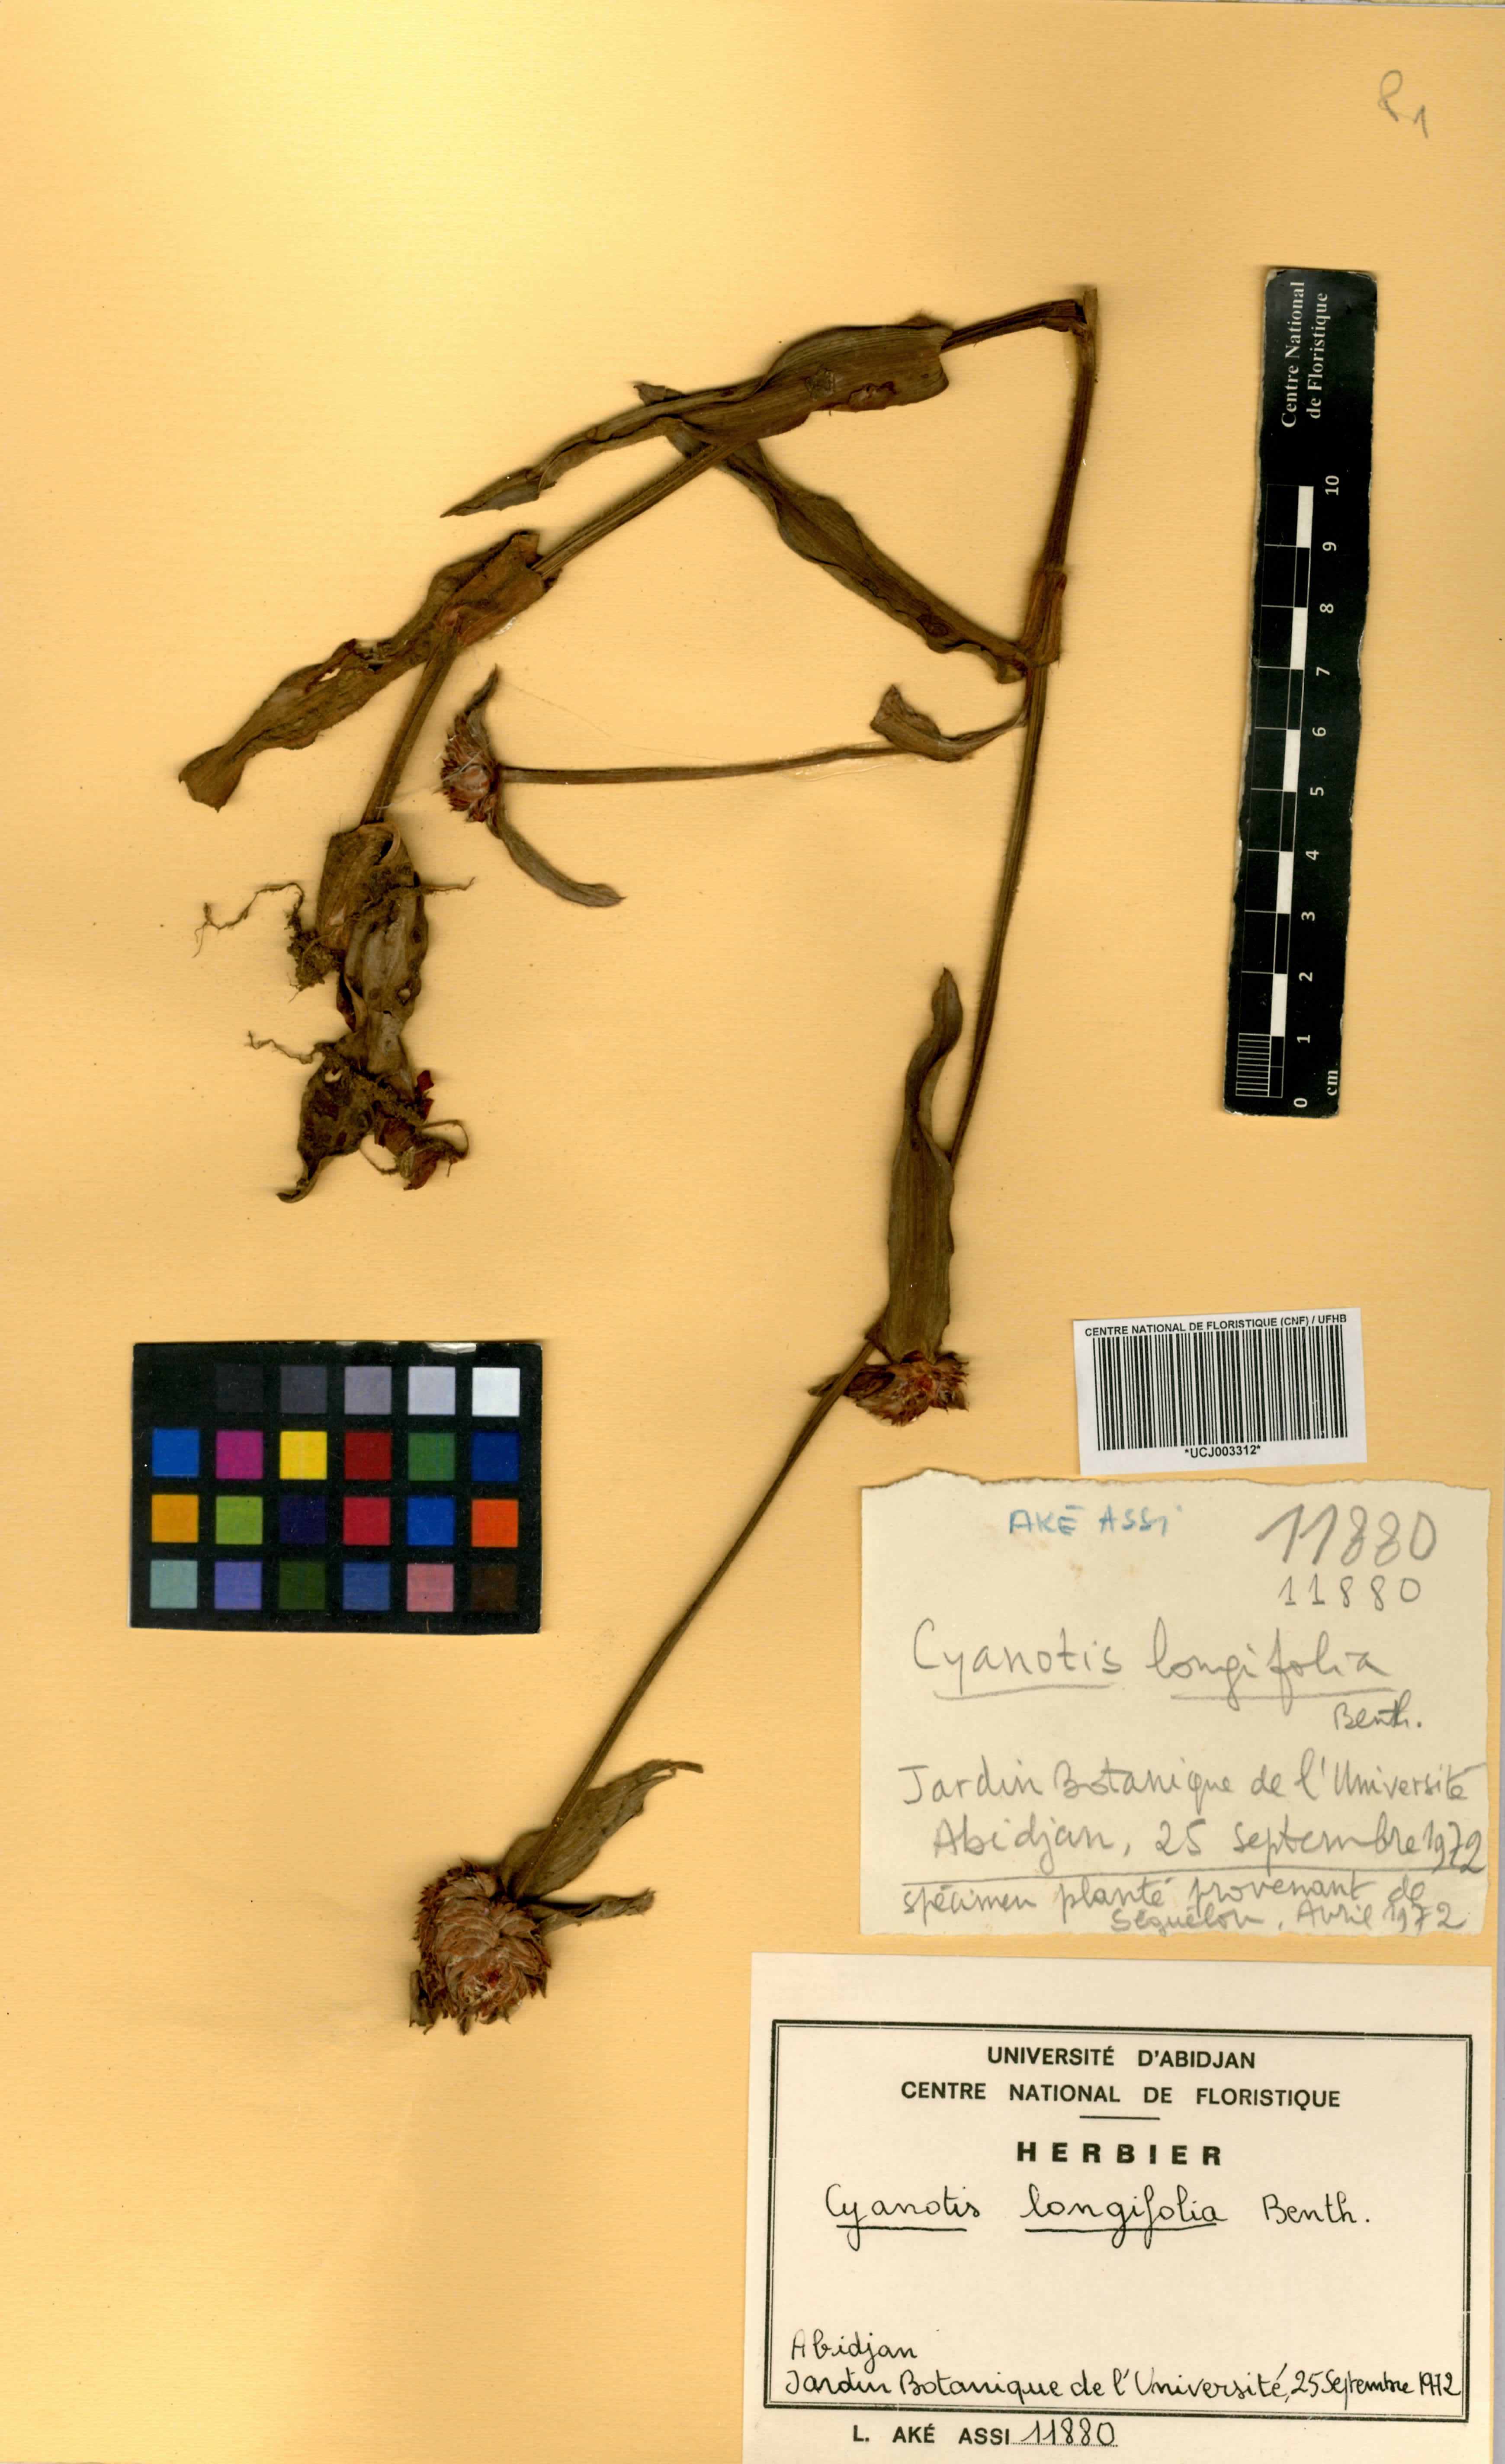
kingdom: Plantae
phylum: Tracheophyta
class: Liliopsida
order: Commelinales
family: Commelinaceae
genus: Cyanotis
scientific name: Cyanotis longifolia
